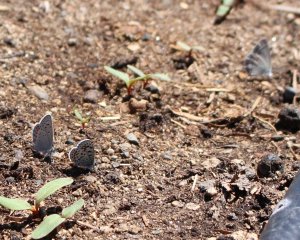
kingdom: Animalia
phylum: Arthropoda
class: Insecta
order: Lepidoptera
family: Lycaenidae
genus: Euphilotes
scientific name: Euphilotes
